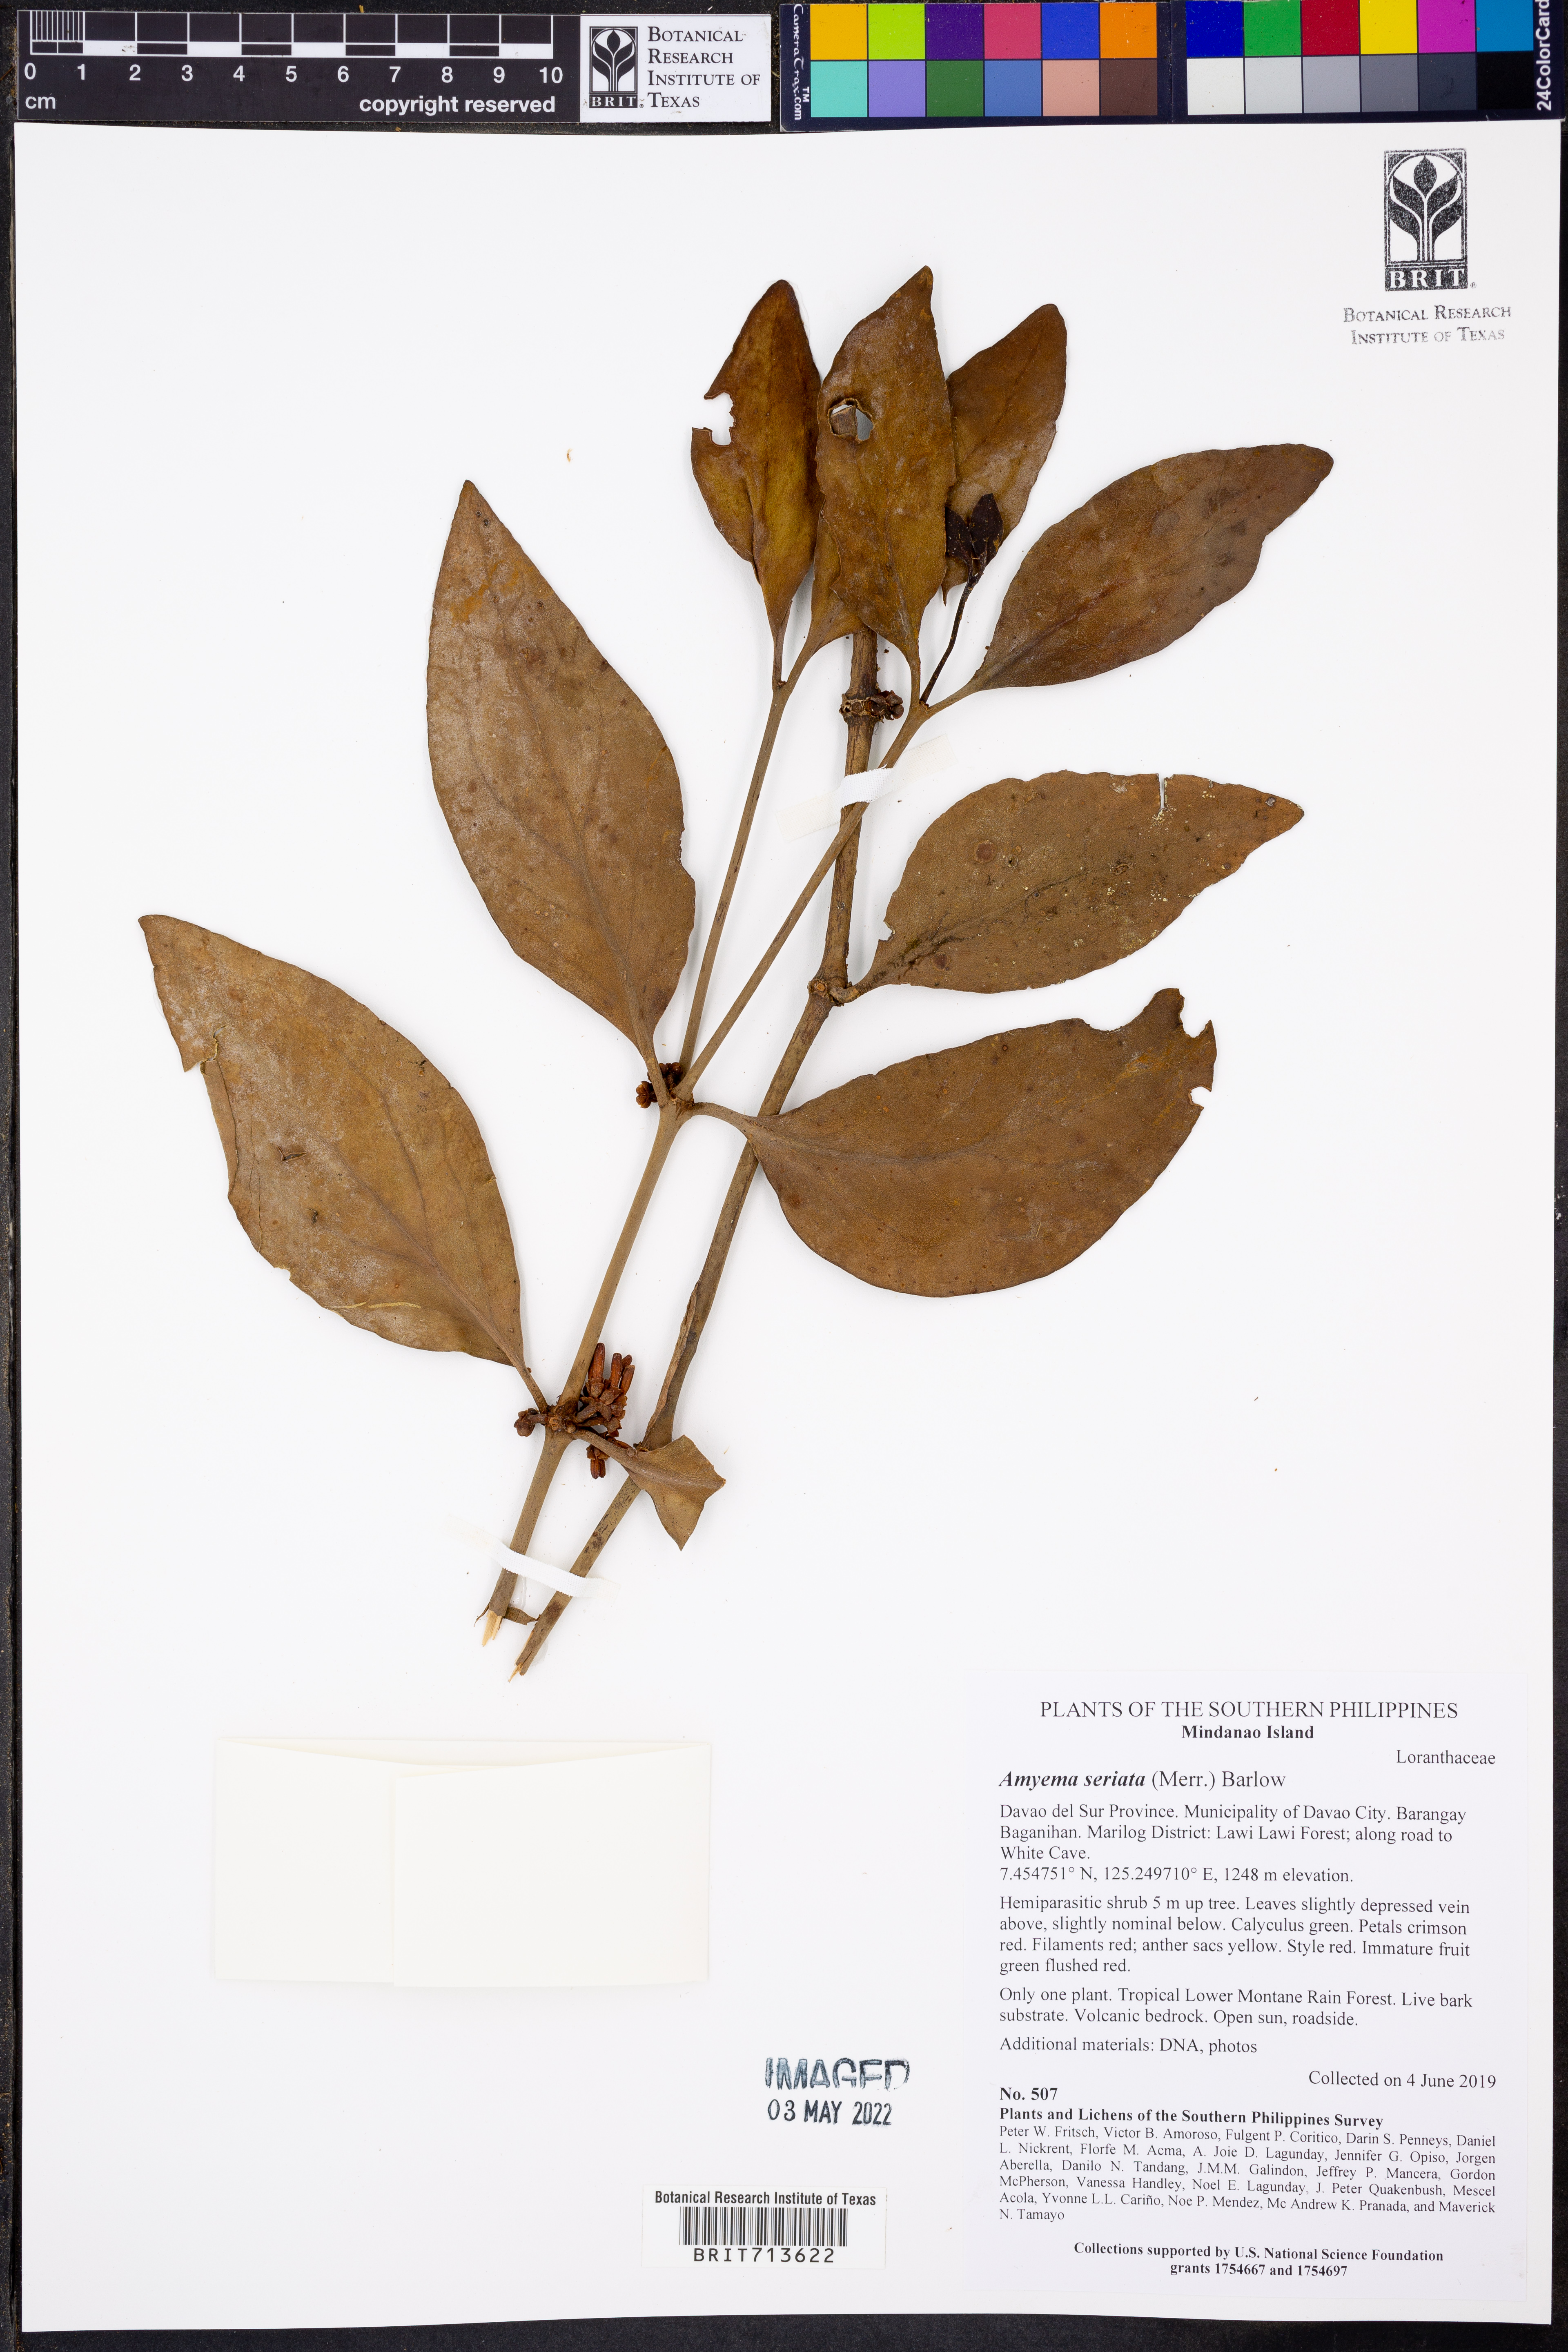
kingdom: Plantae
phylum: Tracheophyta
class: Magnoliopsida
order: Santalales
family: Loranthaceae
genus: Amyema
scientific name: Amyema seriata
